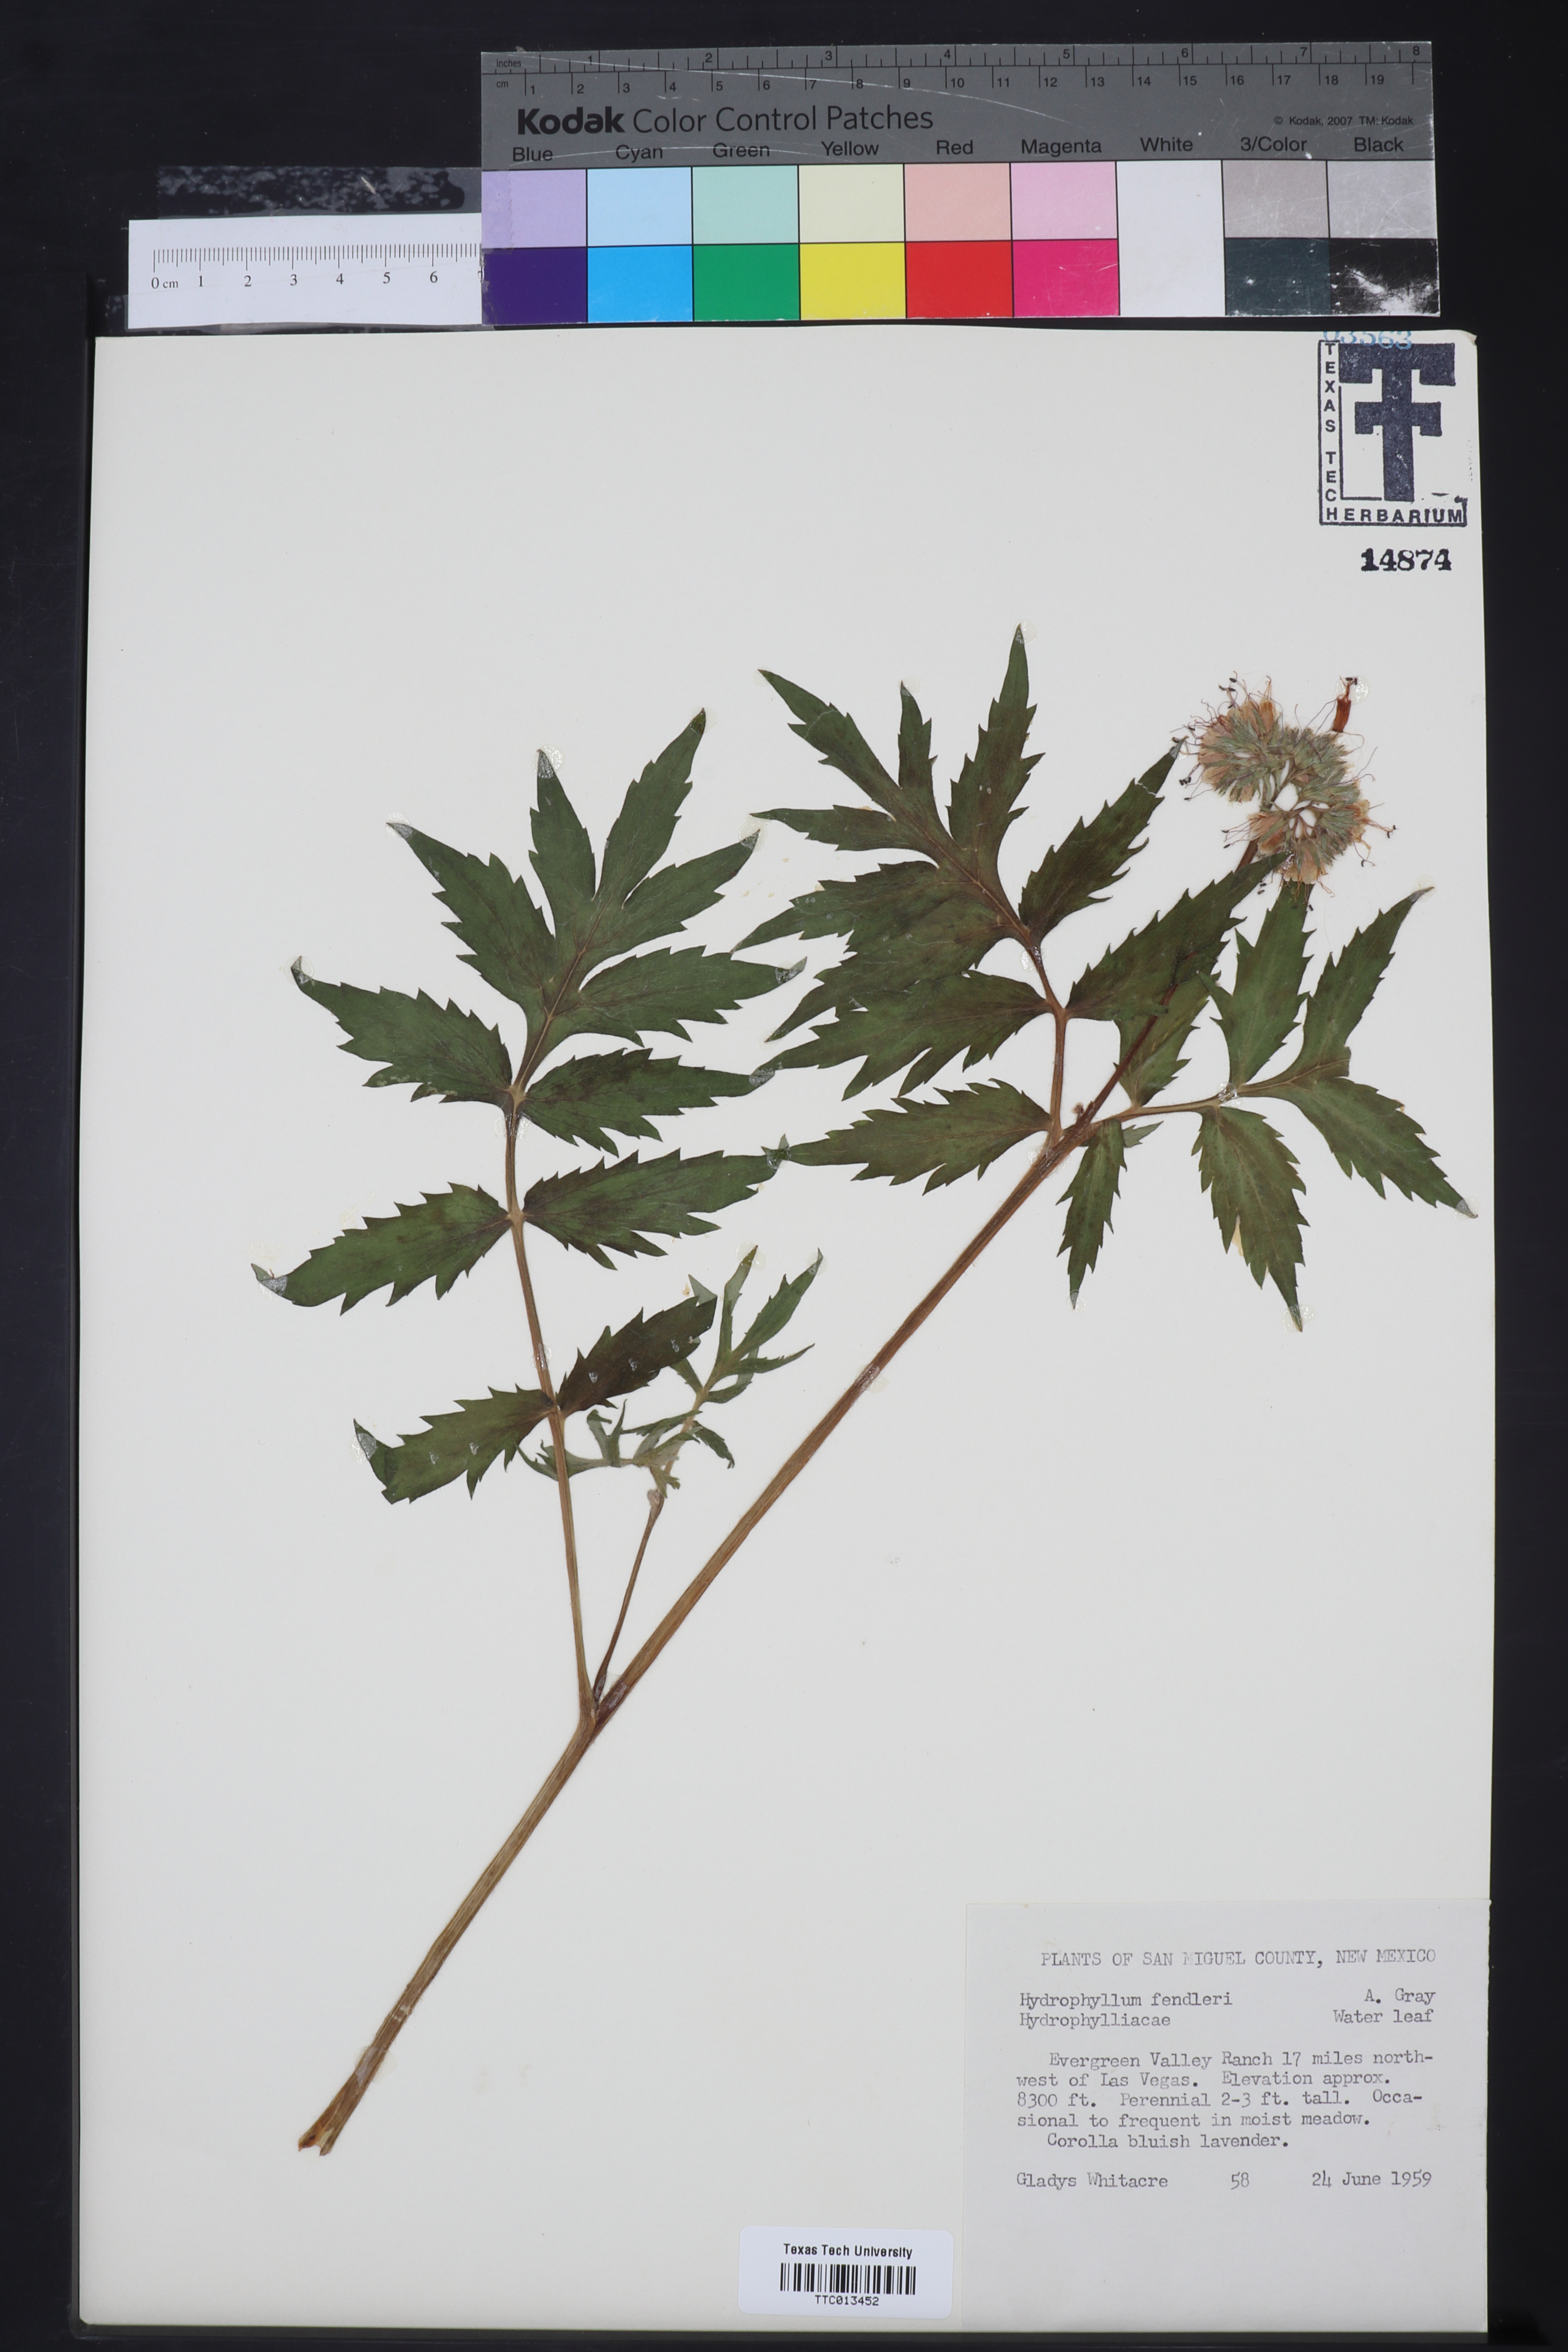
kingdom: Plantae
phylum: Tracheophyta
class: Magnoliopsida
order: Boraginales
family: Hydrophyllaceae
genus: Hydrophyllum
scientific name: Hydrophyllum fendleri
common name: Fendler's waterleaf
